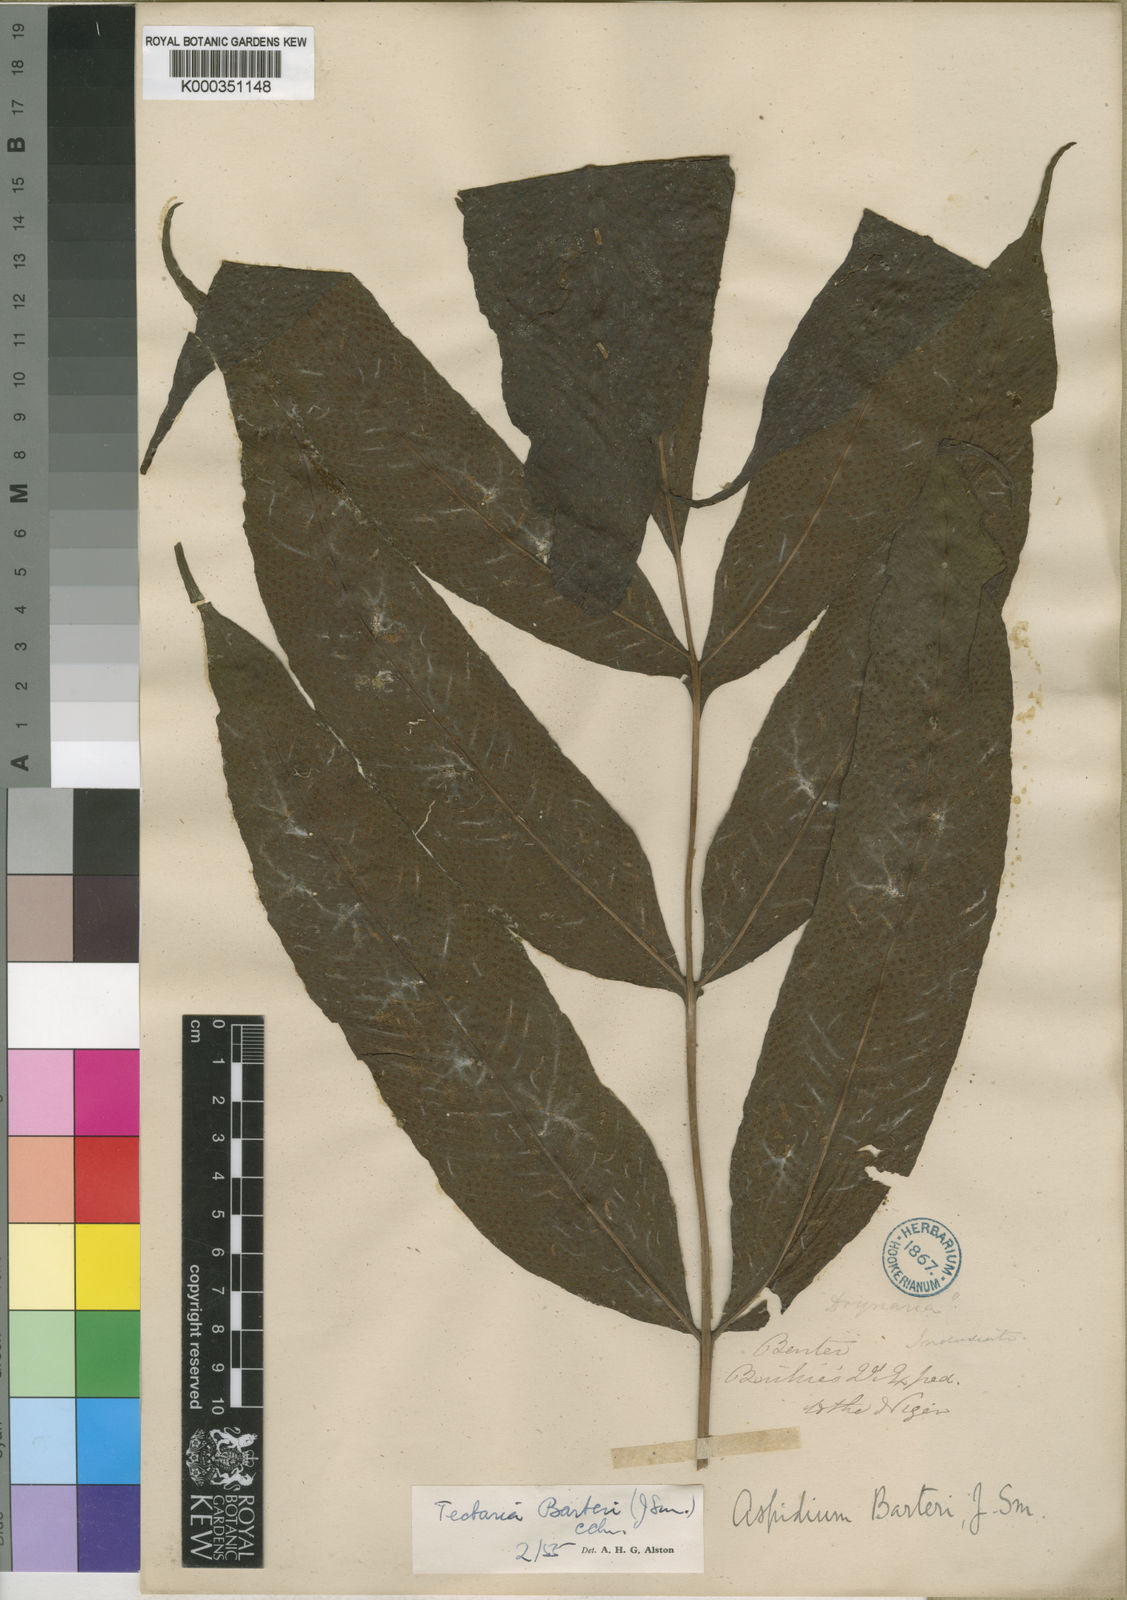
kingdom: Plantae
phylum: Tracheophyta
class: Polypodiopsida
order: Polypodiales
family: Tectariaceae
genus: Tectaria
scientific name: Tectaria barteri
